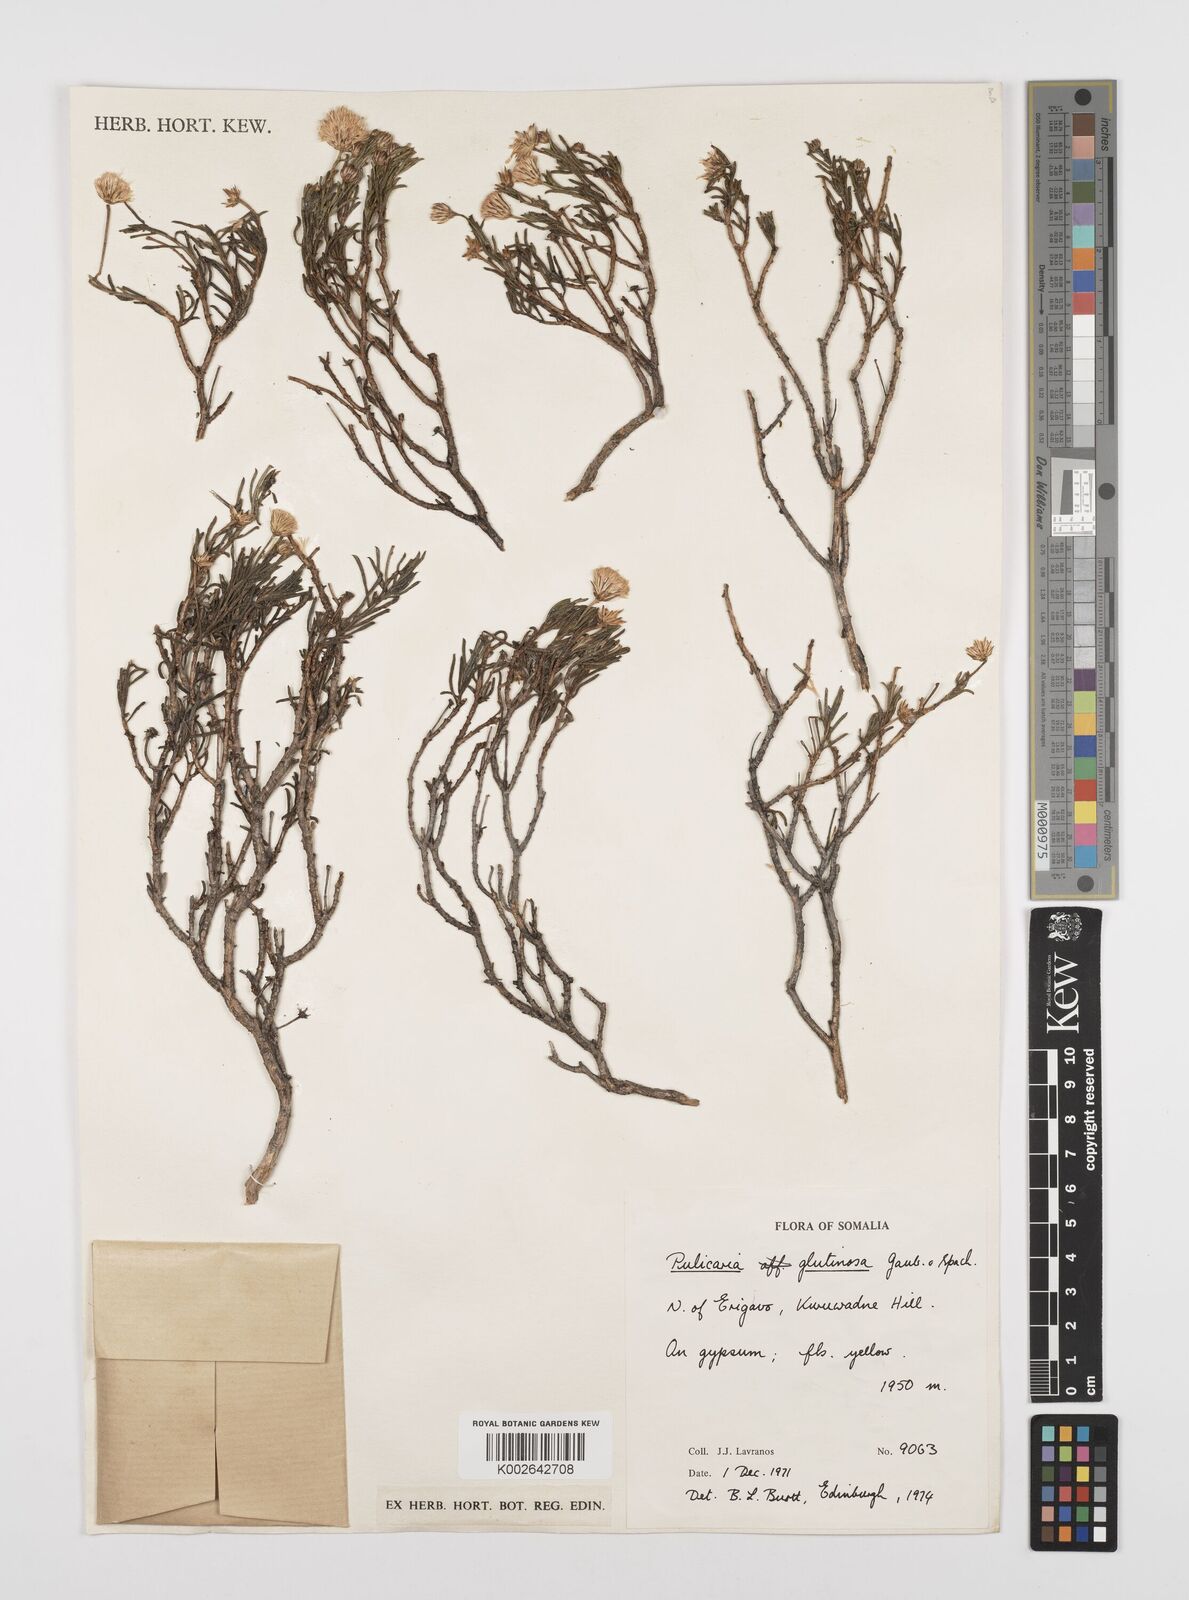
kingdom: Plantae
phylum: Tracheophyta
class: Magnoliopsida
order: Asterales
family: Asteraceae
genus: Pulicaria
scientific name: Pulicaria glutinosa
